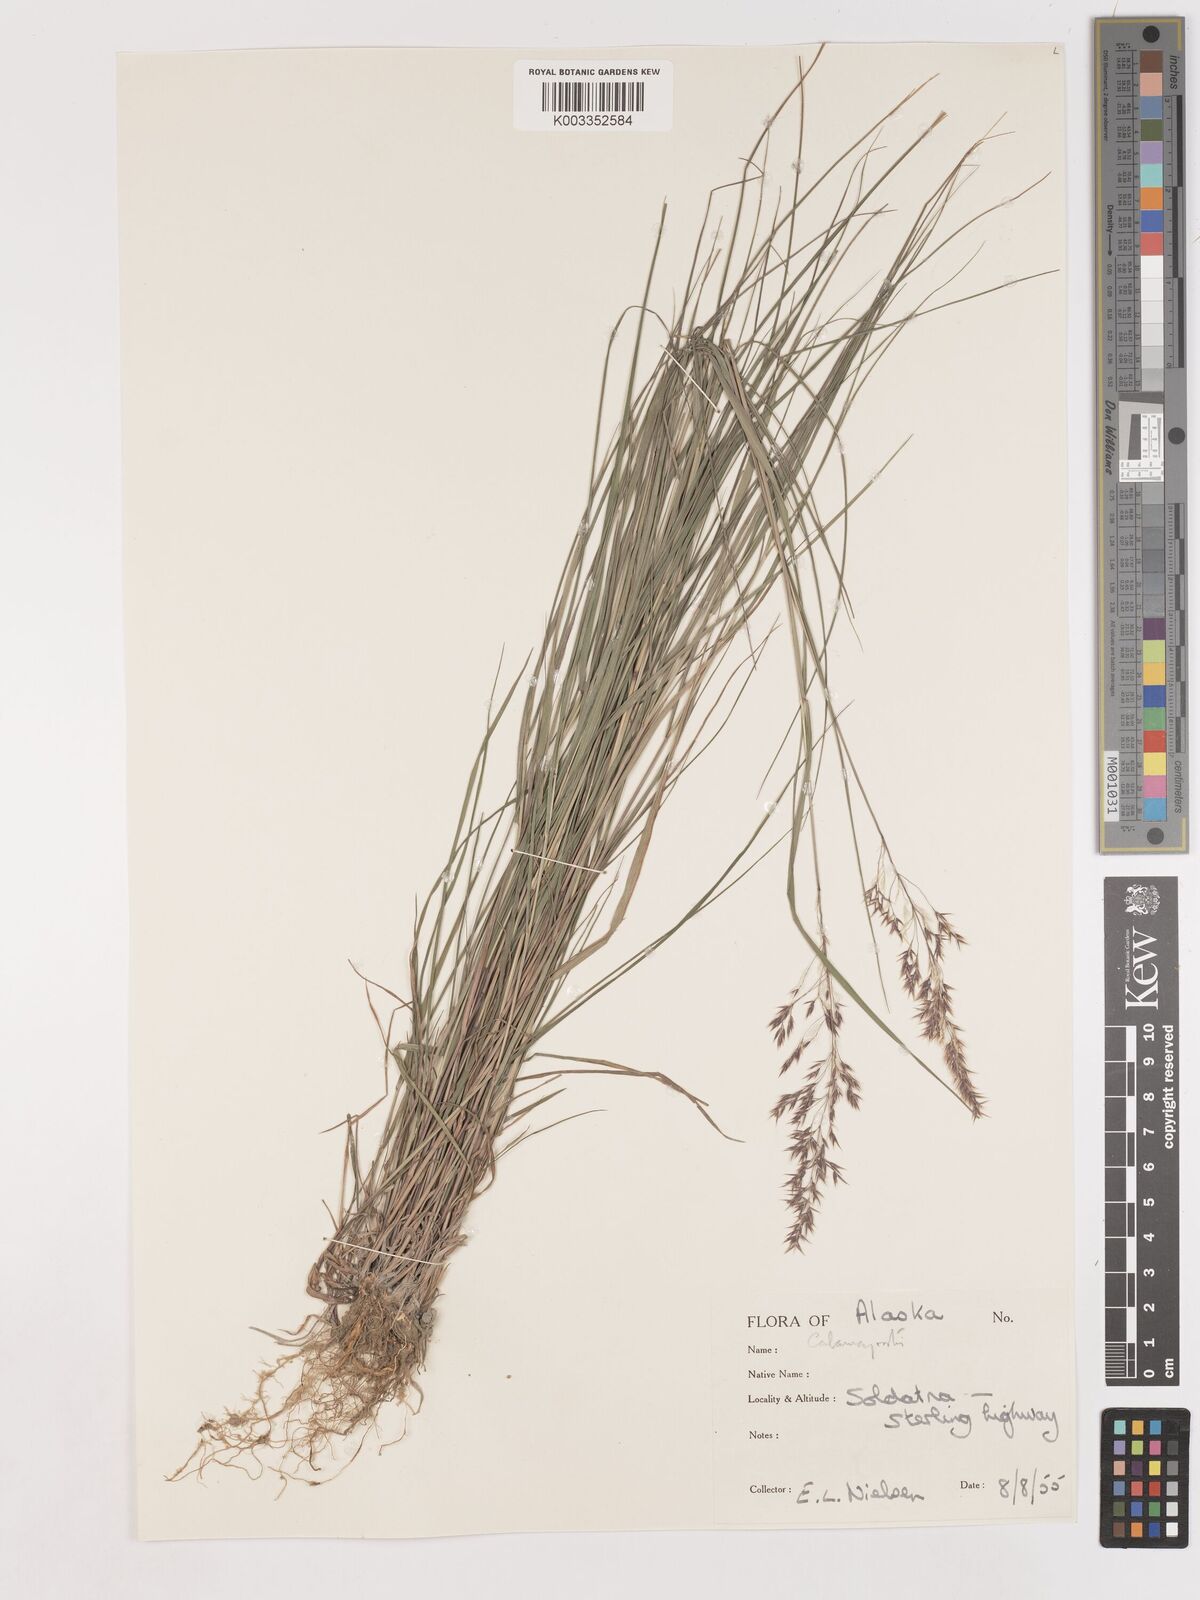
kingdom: Plantae
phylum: Tracheophyta
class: Liliopsida
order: Poales
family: Poaceae
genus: Calamagrostis
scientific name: Calamagrostis canadensis
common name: Canada bluejoint
